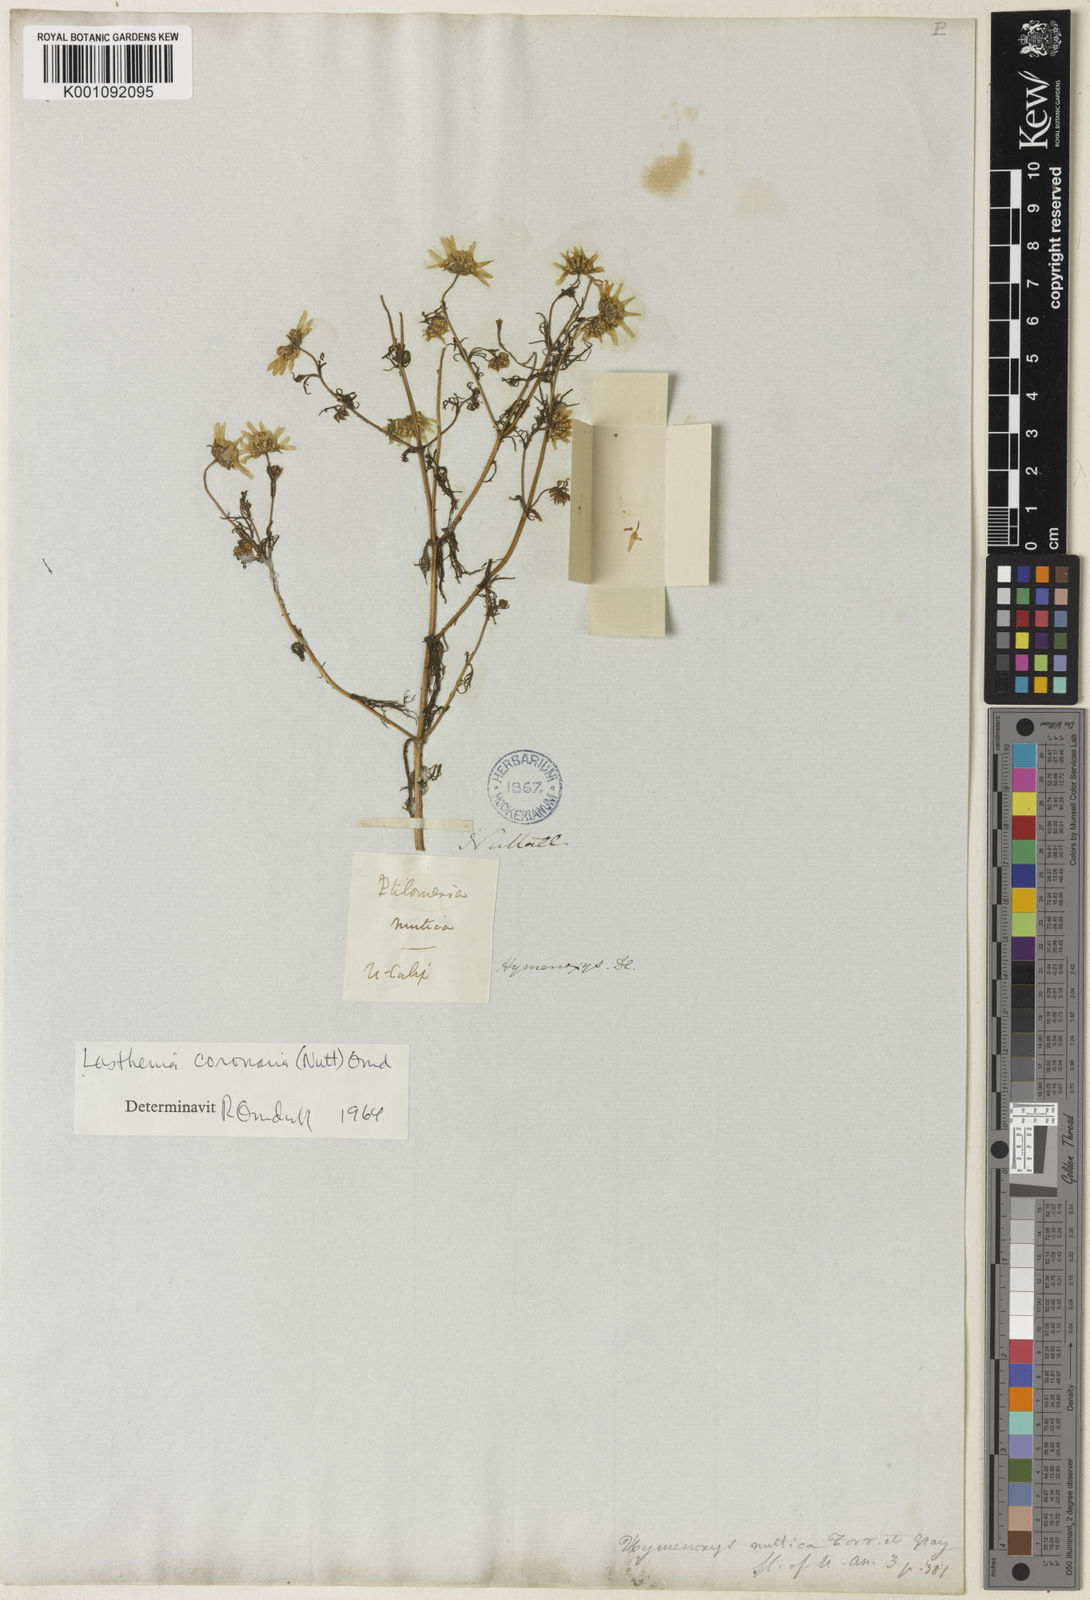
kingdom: Plantae
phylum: Tracheophyta
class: Magnoliopsida
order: Asterales
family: Asteraceae
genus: Lasthenia
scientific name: Lasthenia coronaria
